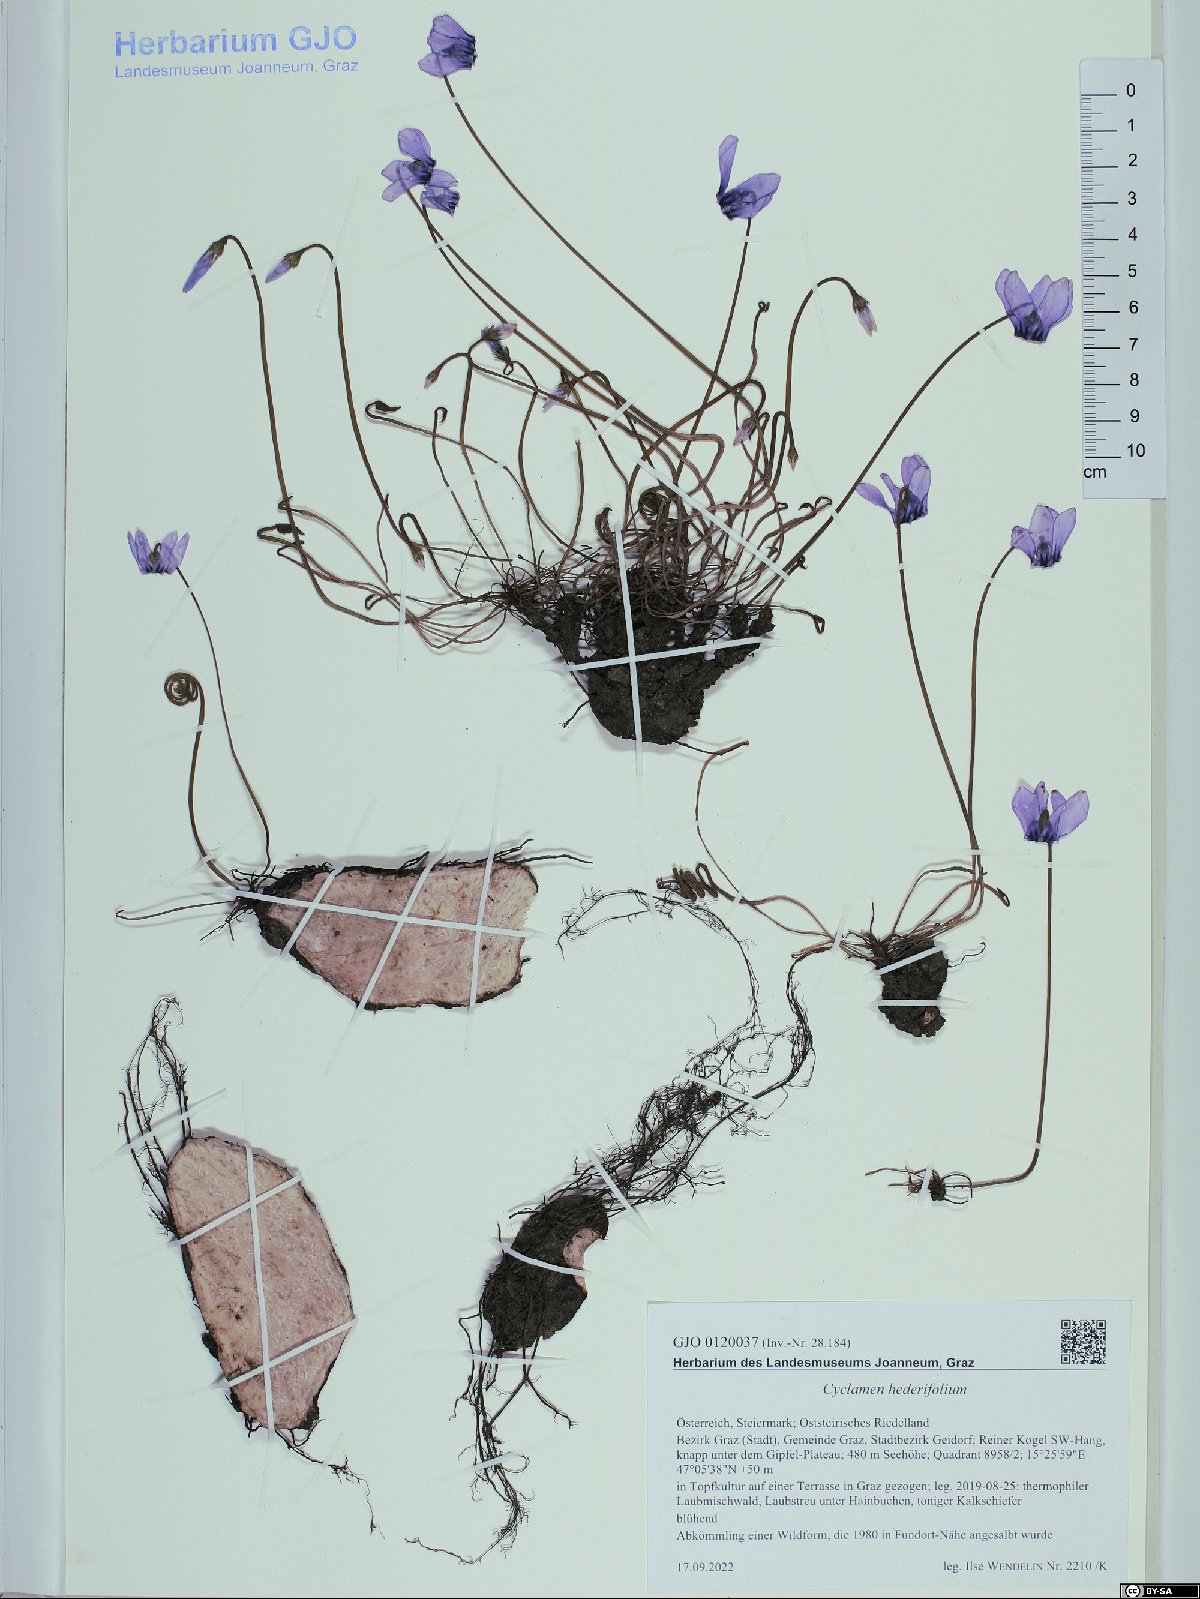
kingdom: Plantae
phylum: Tracheophyta
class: Magnoliopsida
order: Ericales
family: Primulaceae
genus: Cyclamen
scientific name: Cyclamen hederifolium
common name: Sowbread
